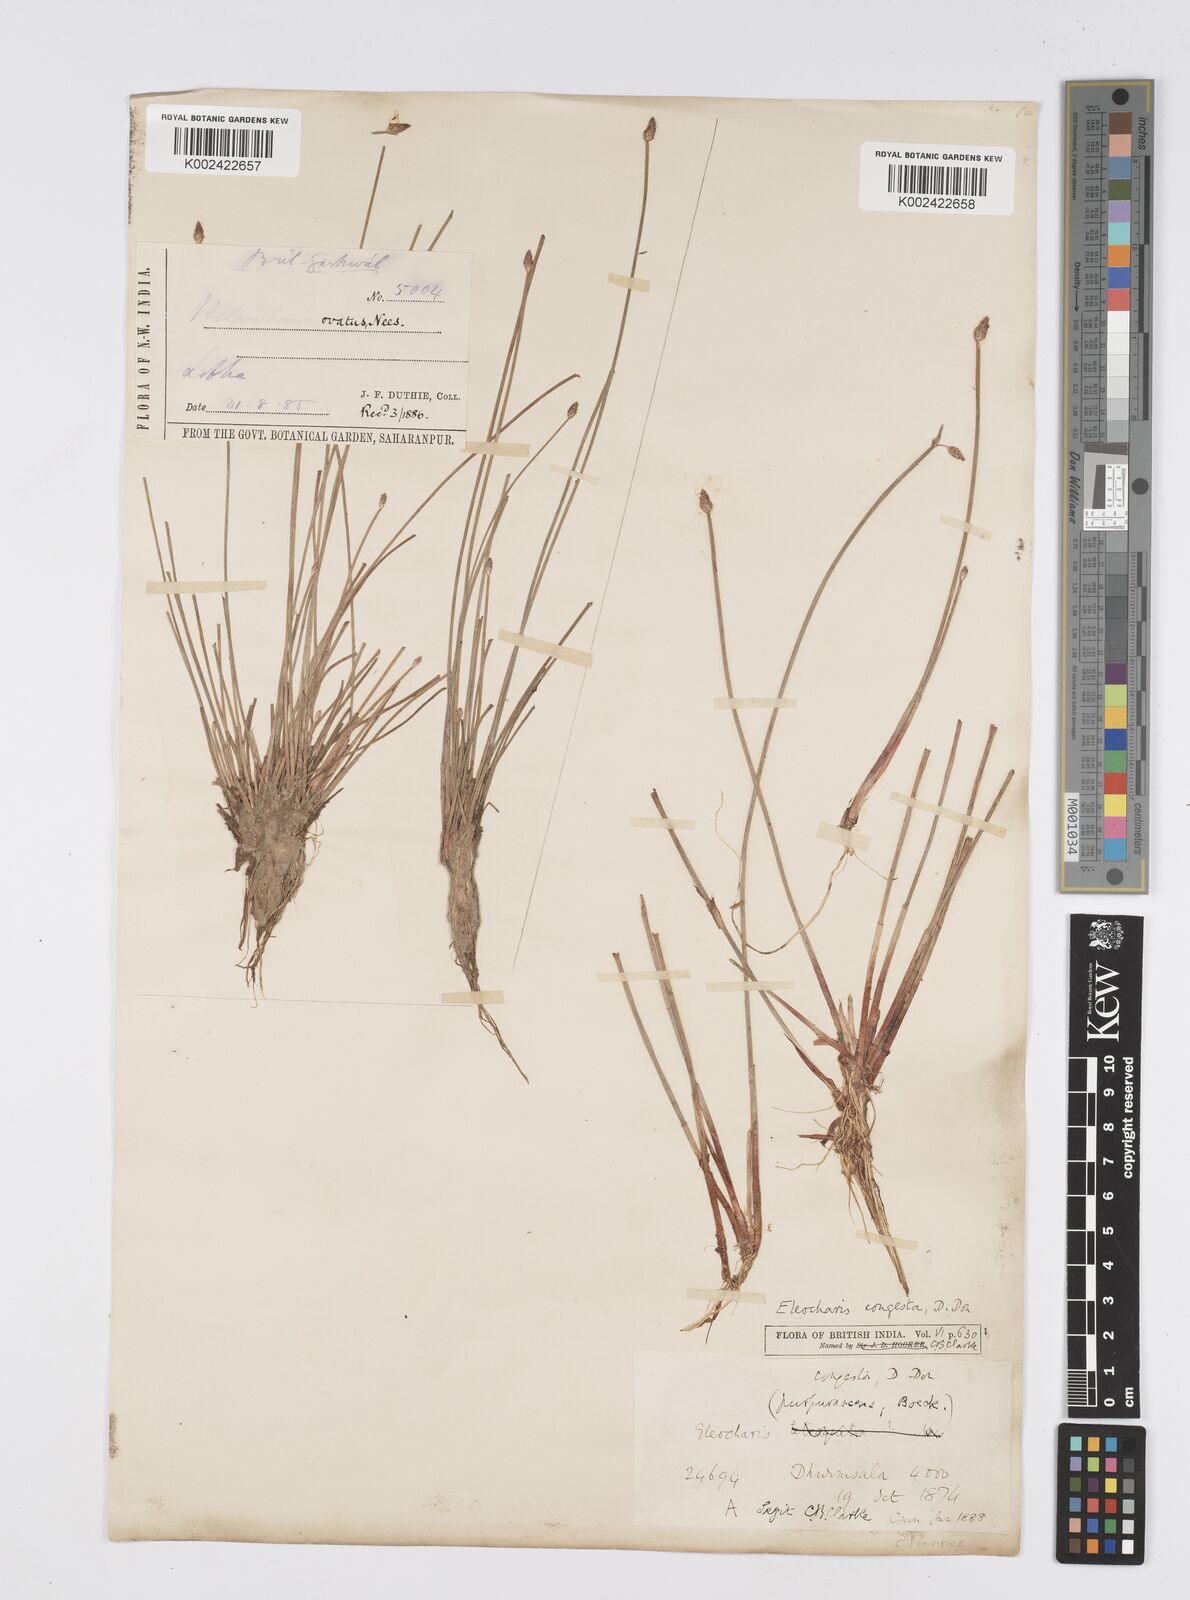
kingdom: Plantae
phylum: Tracheophyta
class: Liliopsida
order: Poales
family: Cyperaceae
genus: Eleocharis
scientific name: Eleocharis congesta
